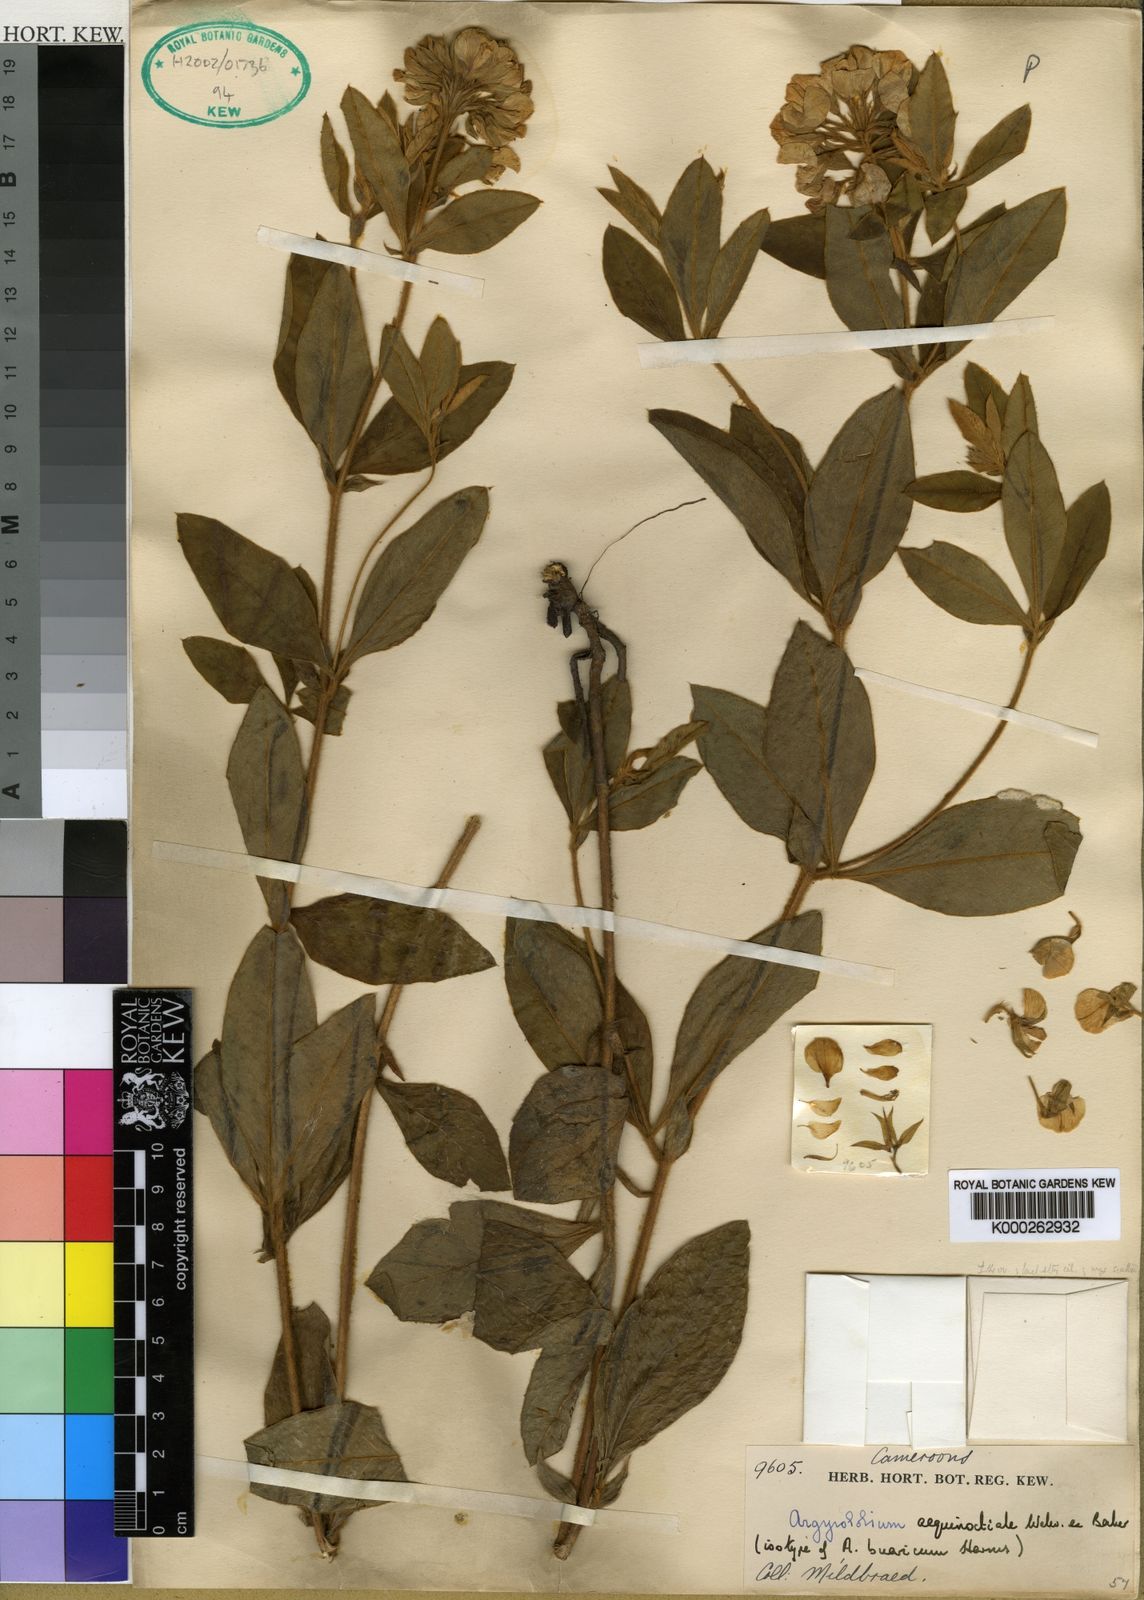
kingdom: Plantae
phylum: Tracheophyta
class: Magnoliopsida
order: Fabales
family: Fabaceae
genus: Argyrolobium
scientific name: Argyrolobium aequinoctiale
